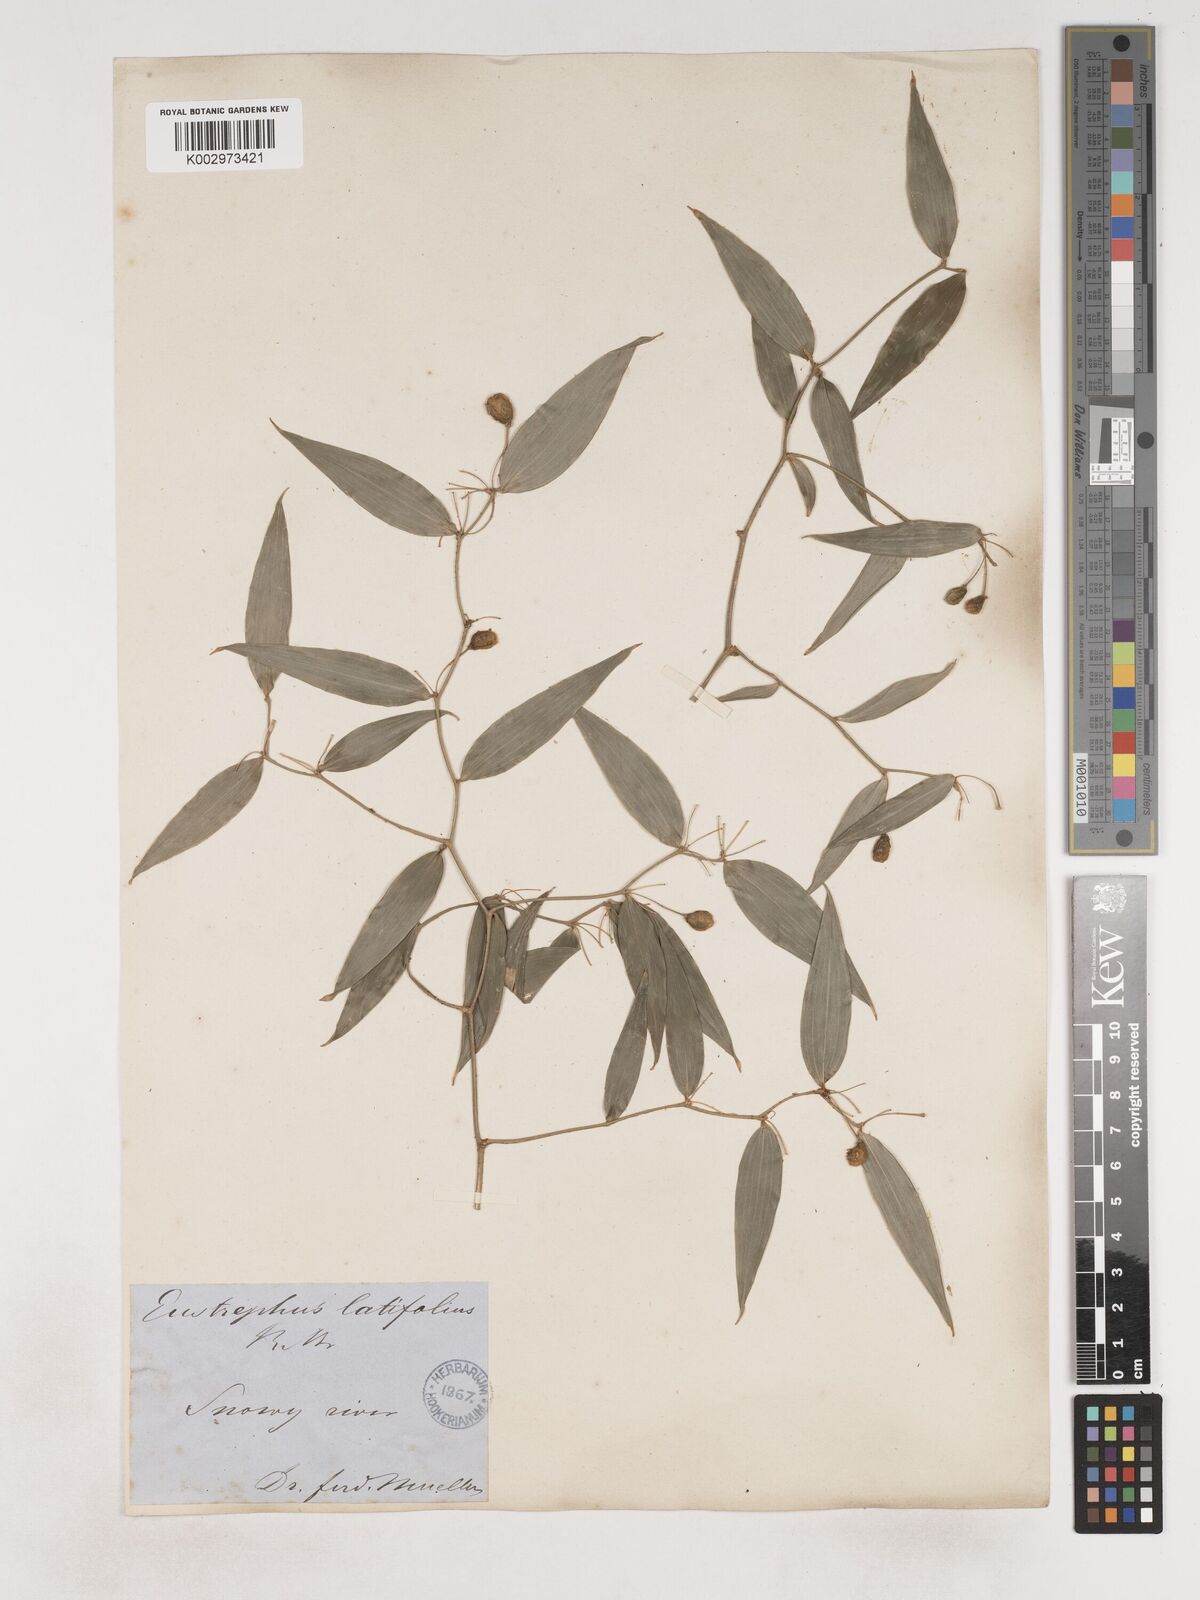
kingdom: Plantae
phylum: Tracheophyta
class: Liliopsida
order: Asparagales
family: Asparagaceae
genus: Eustrephus
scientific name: Eustrephus latifolius
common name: Orangevine
